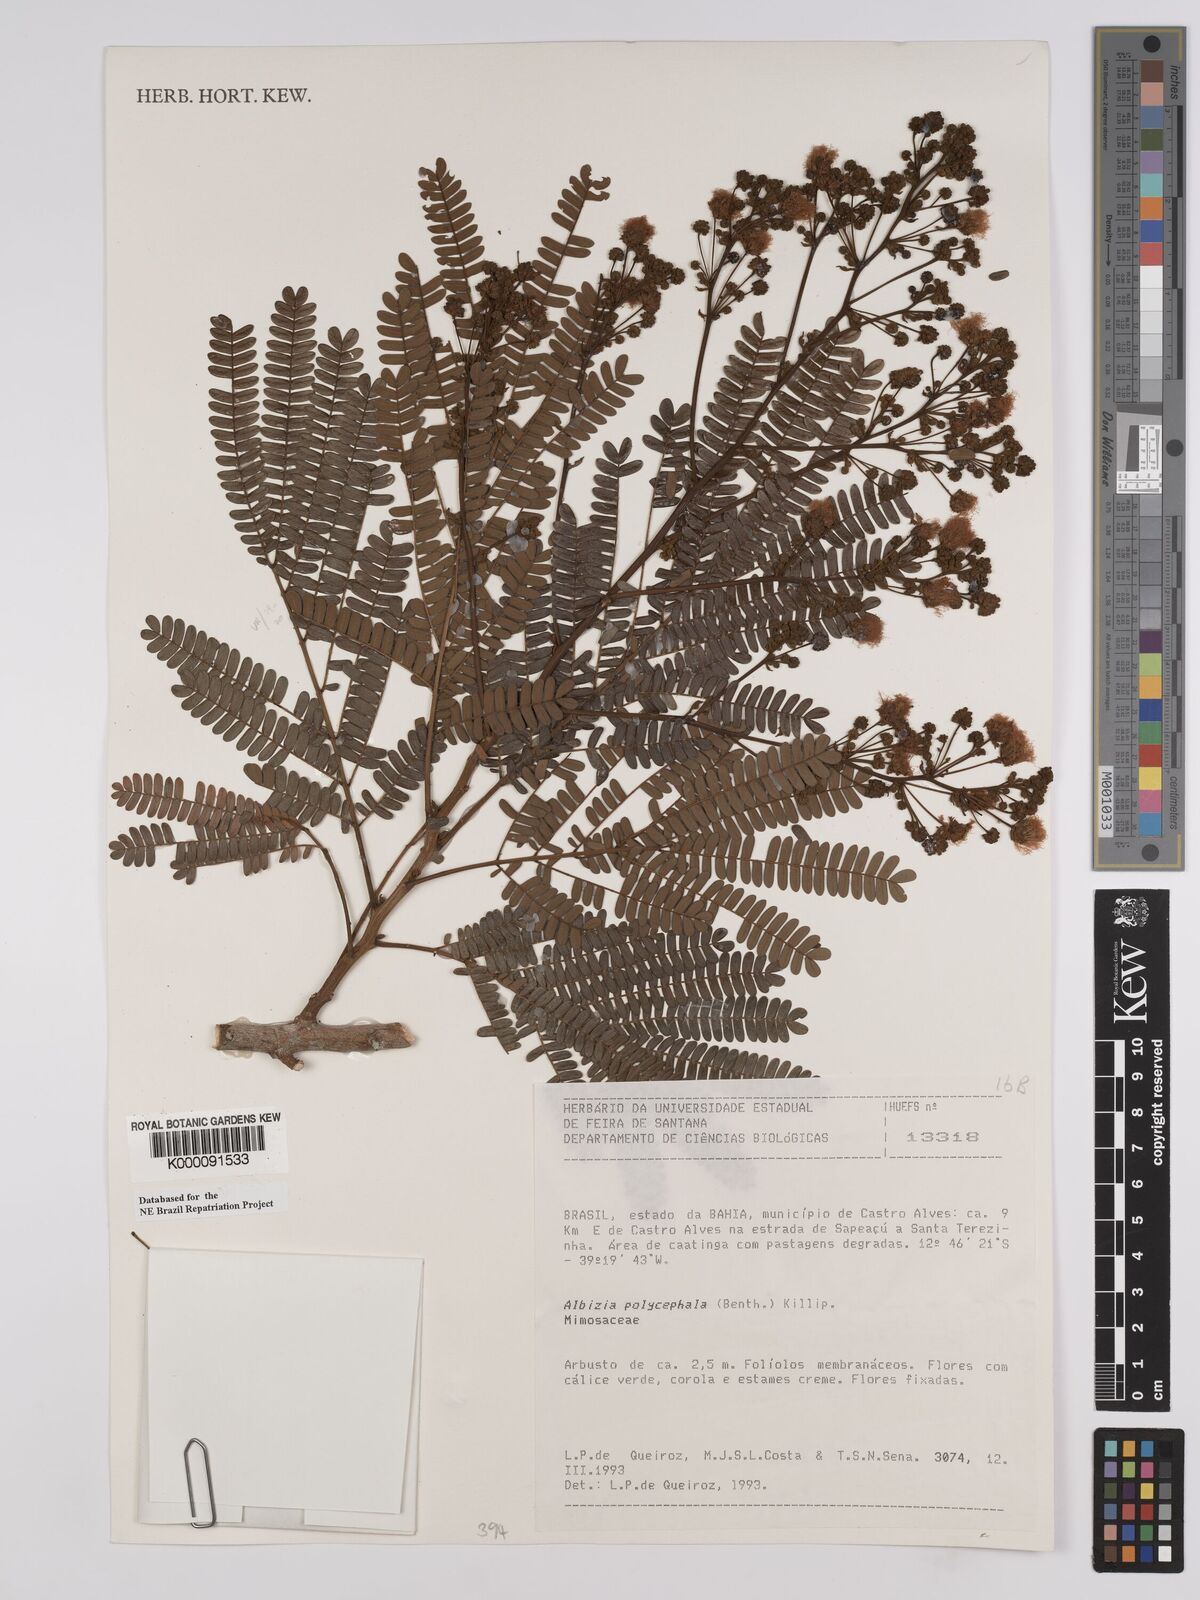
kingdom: Plantae
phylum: Tracheophyta
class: Magnoliopsida
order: Fabales
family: Fabaceae
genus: Albizia
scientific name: Albizia polycephala
